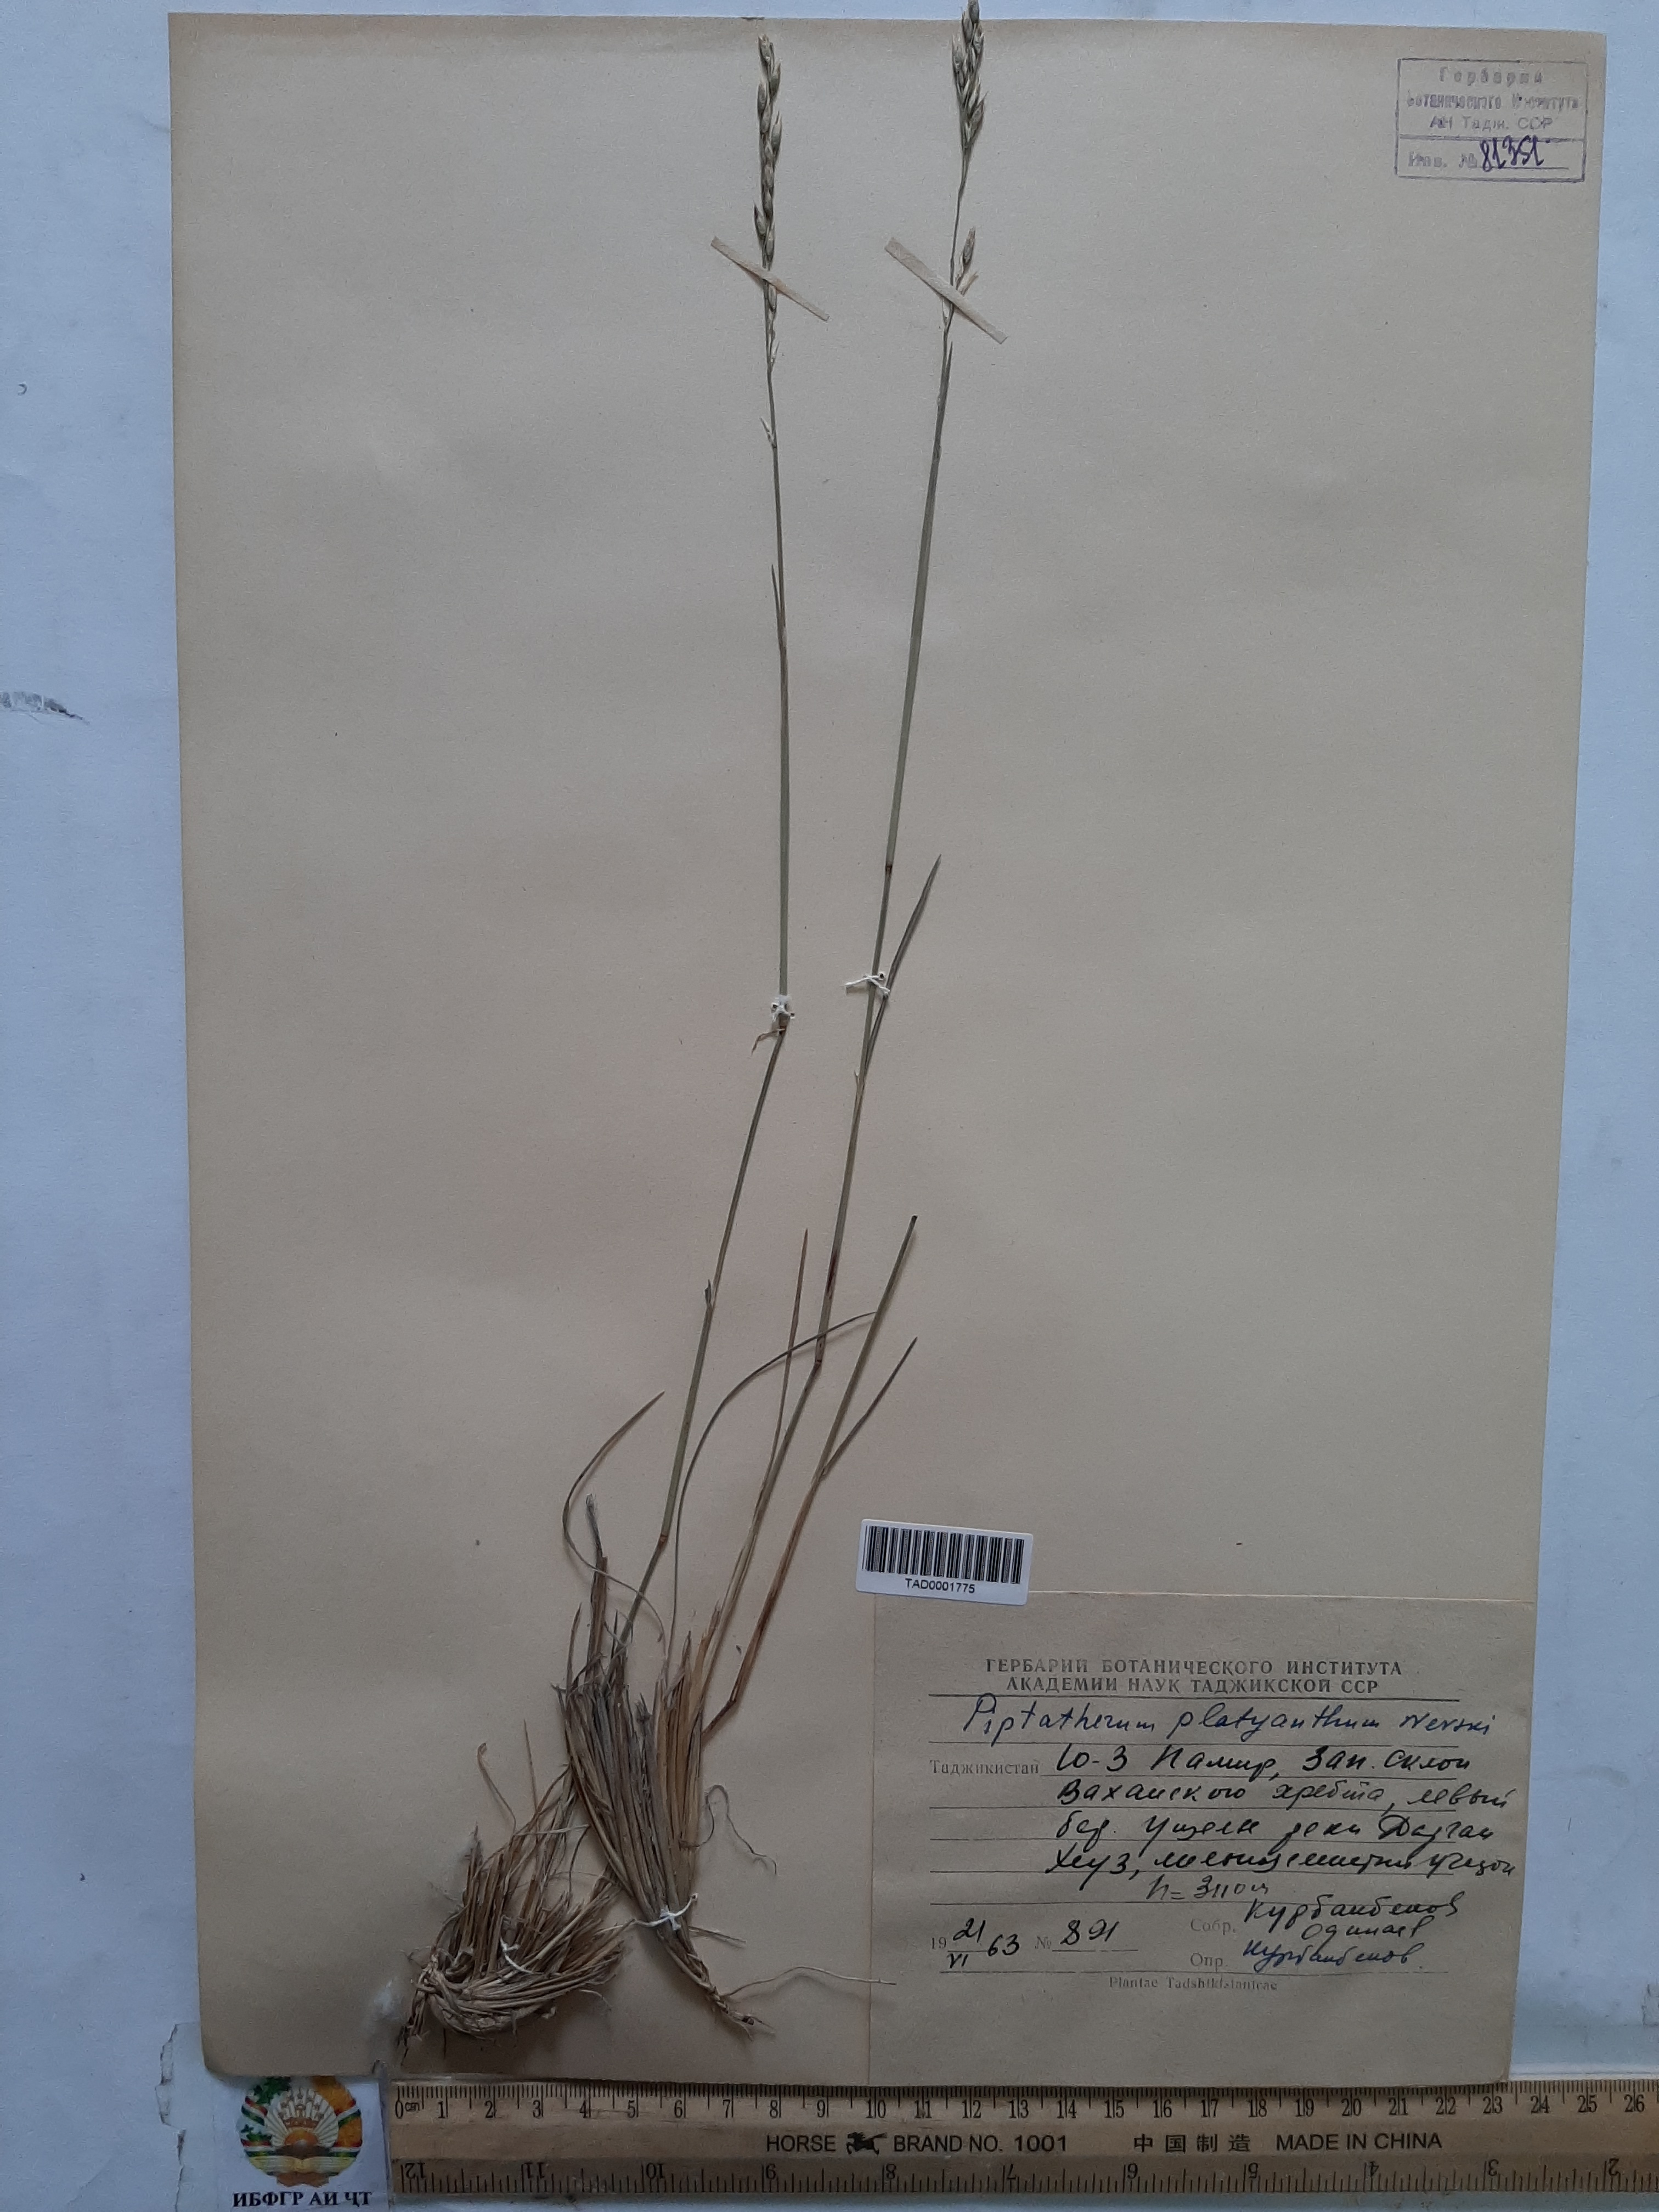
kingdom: Plantae
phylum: Tracheophyta
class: Liliopsida
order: Poales
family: Poaceae
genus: Piptatherum
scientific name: Piptatherum platyanthum
